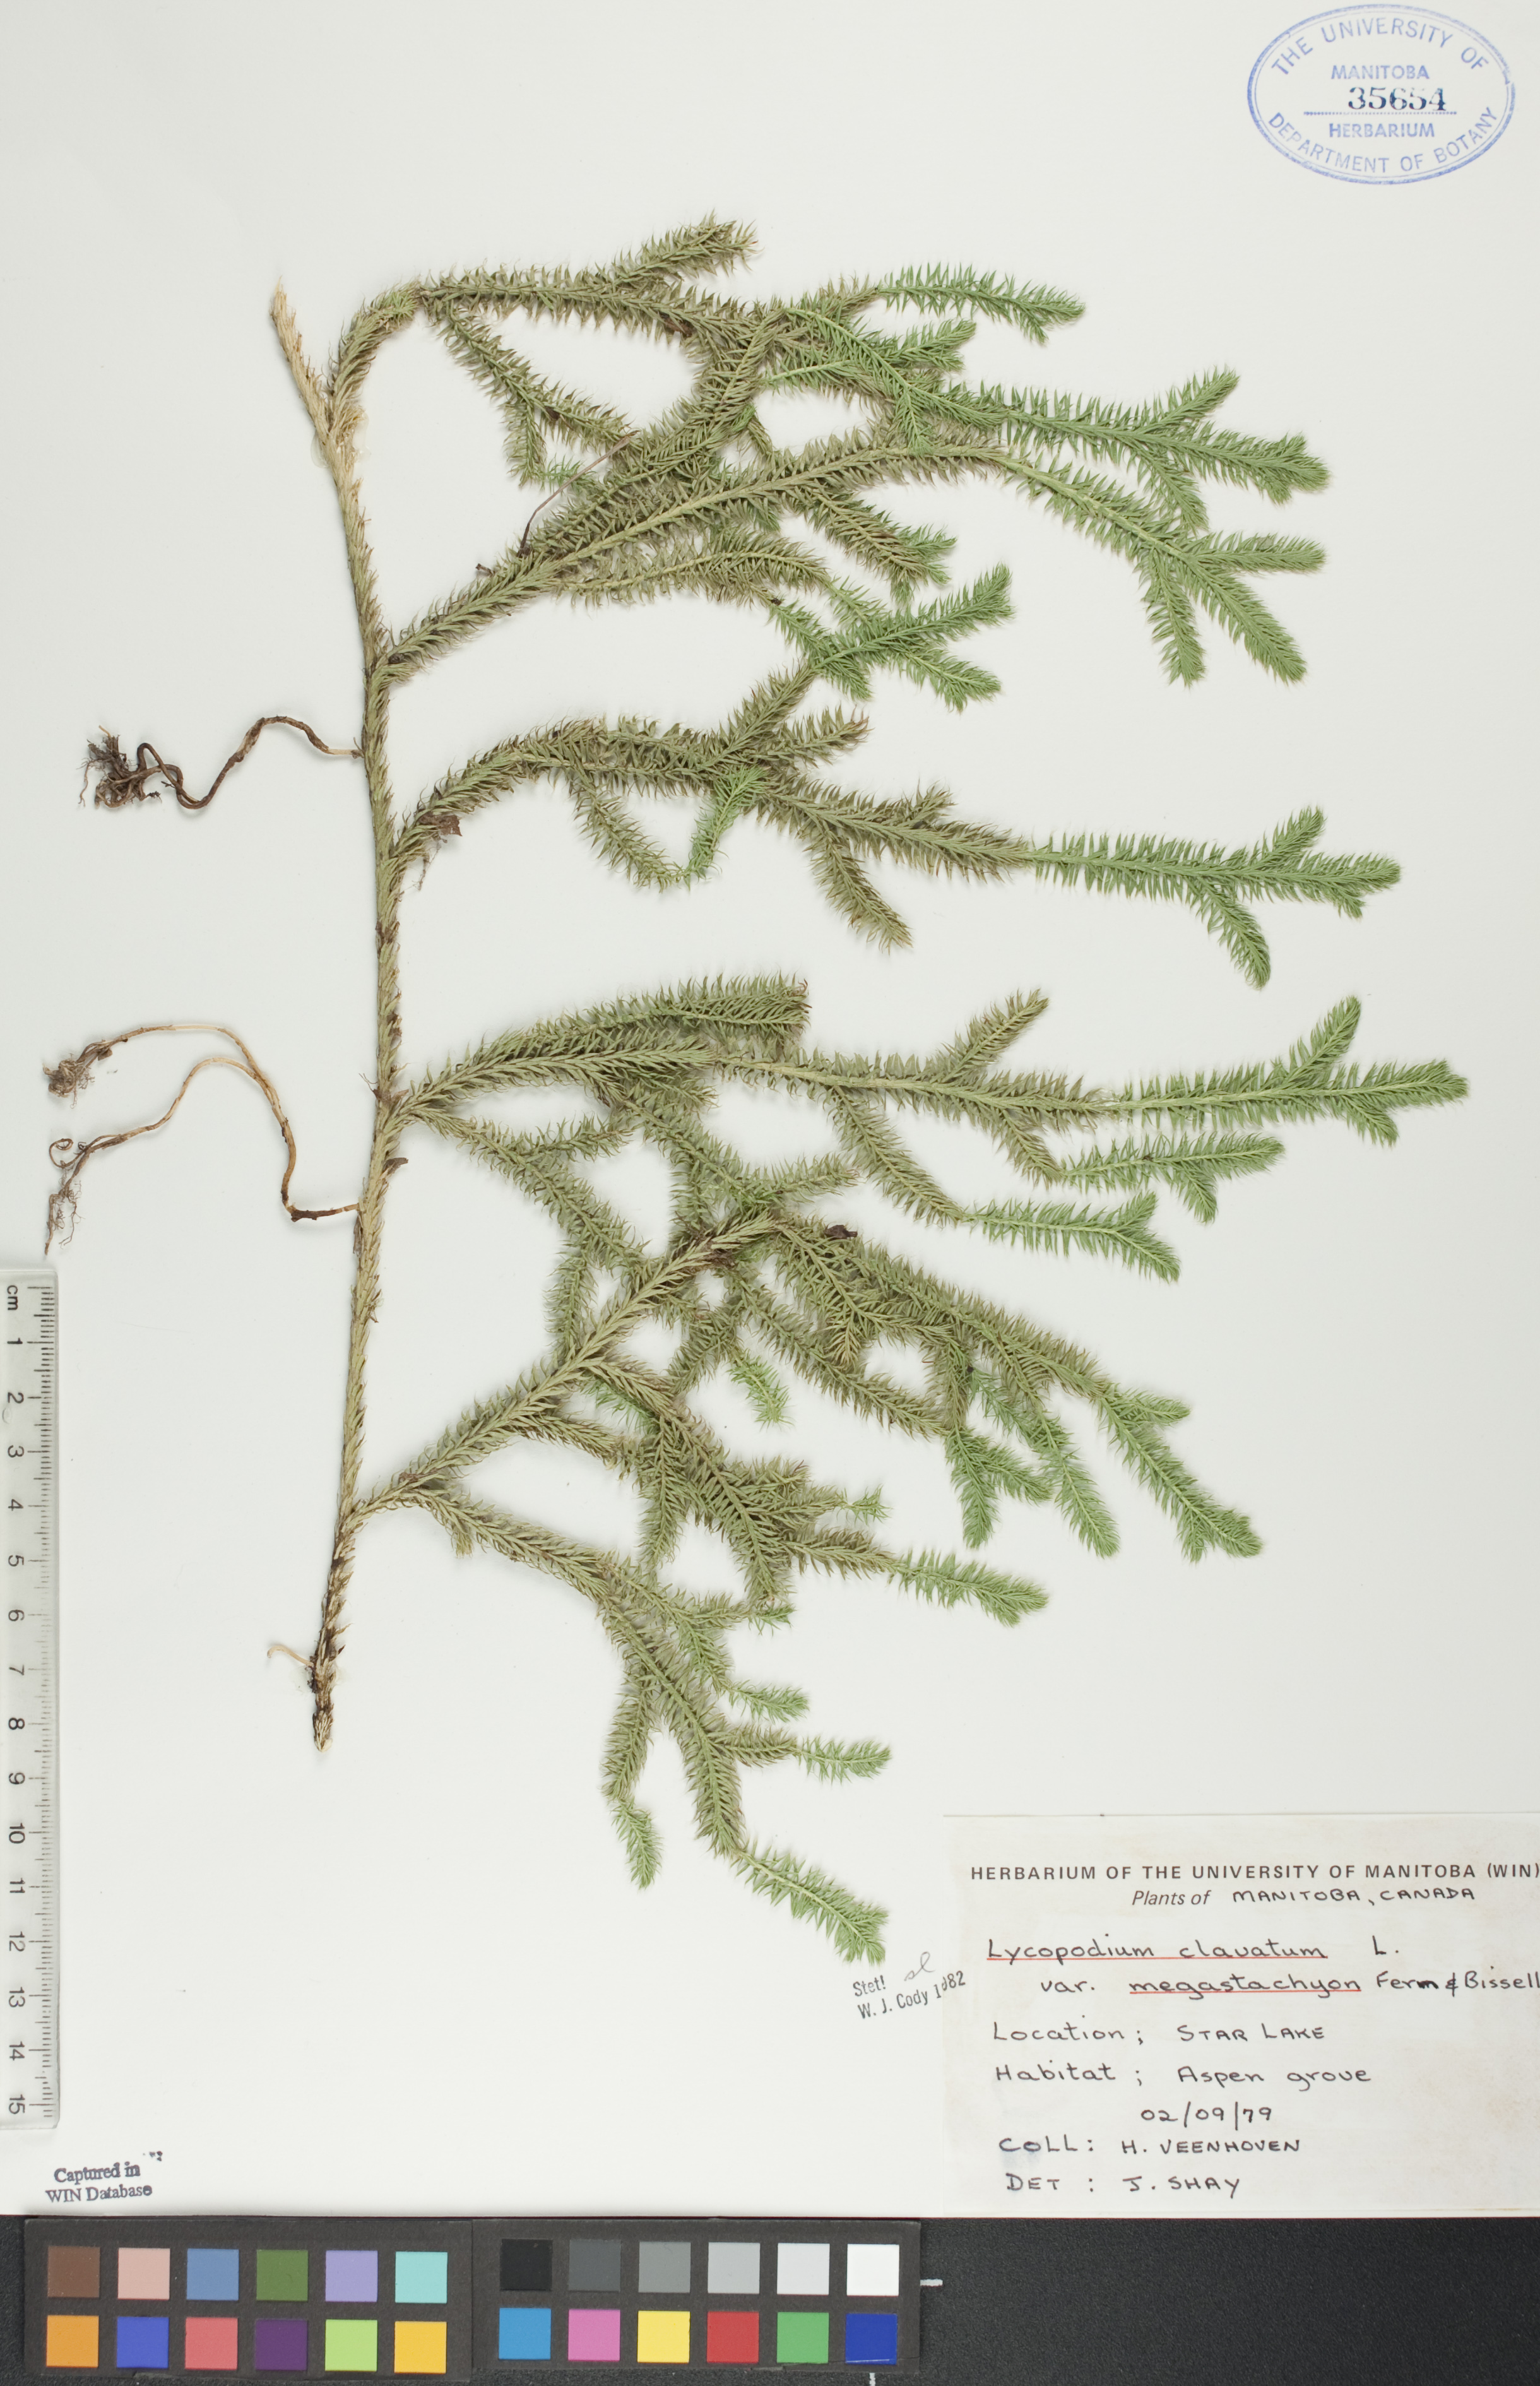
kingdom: Plantae
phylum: Tracheophyta
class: Lycopodiopsida
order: Lycopodiales
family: Lycopodiaceae
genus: Lycopodium
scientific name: Lycopodium lagopus
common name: One-cone clubmoss
